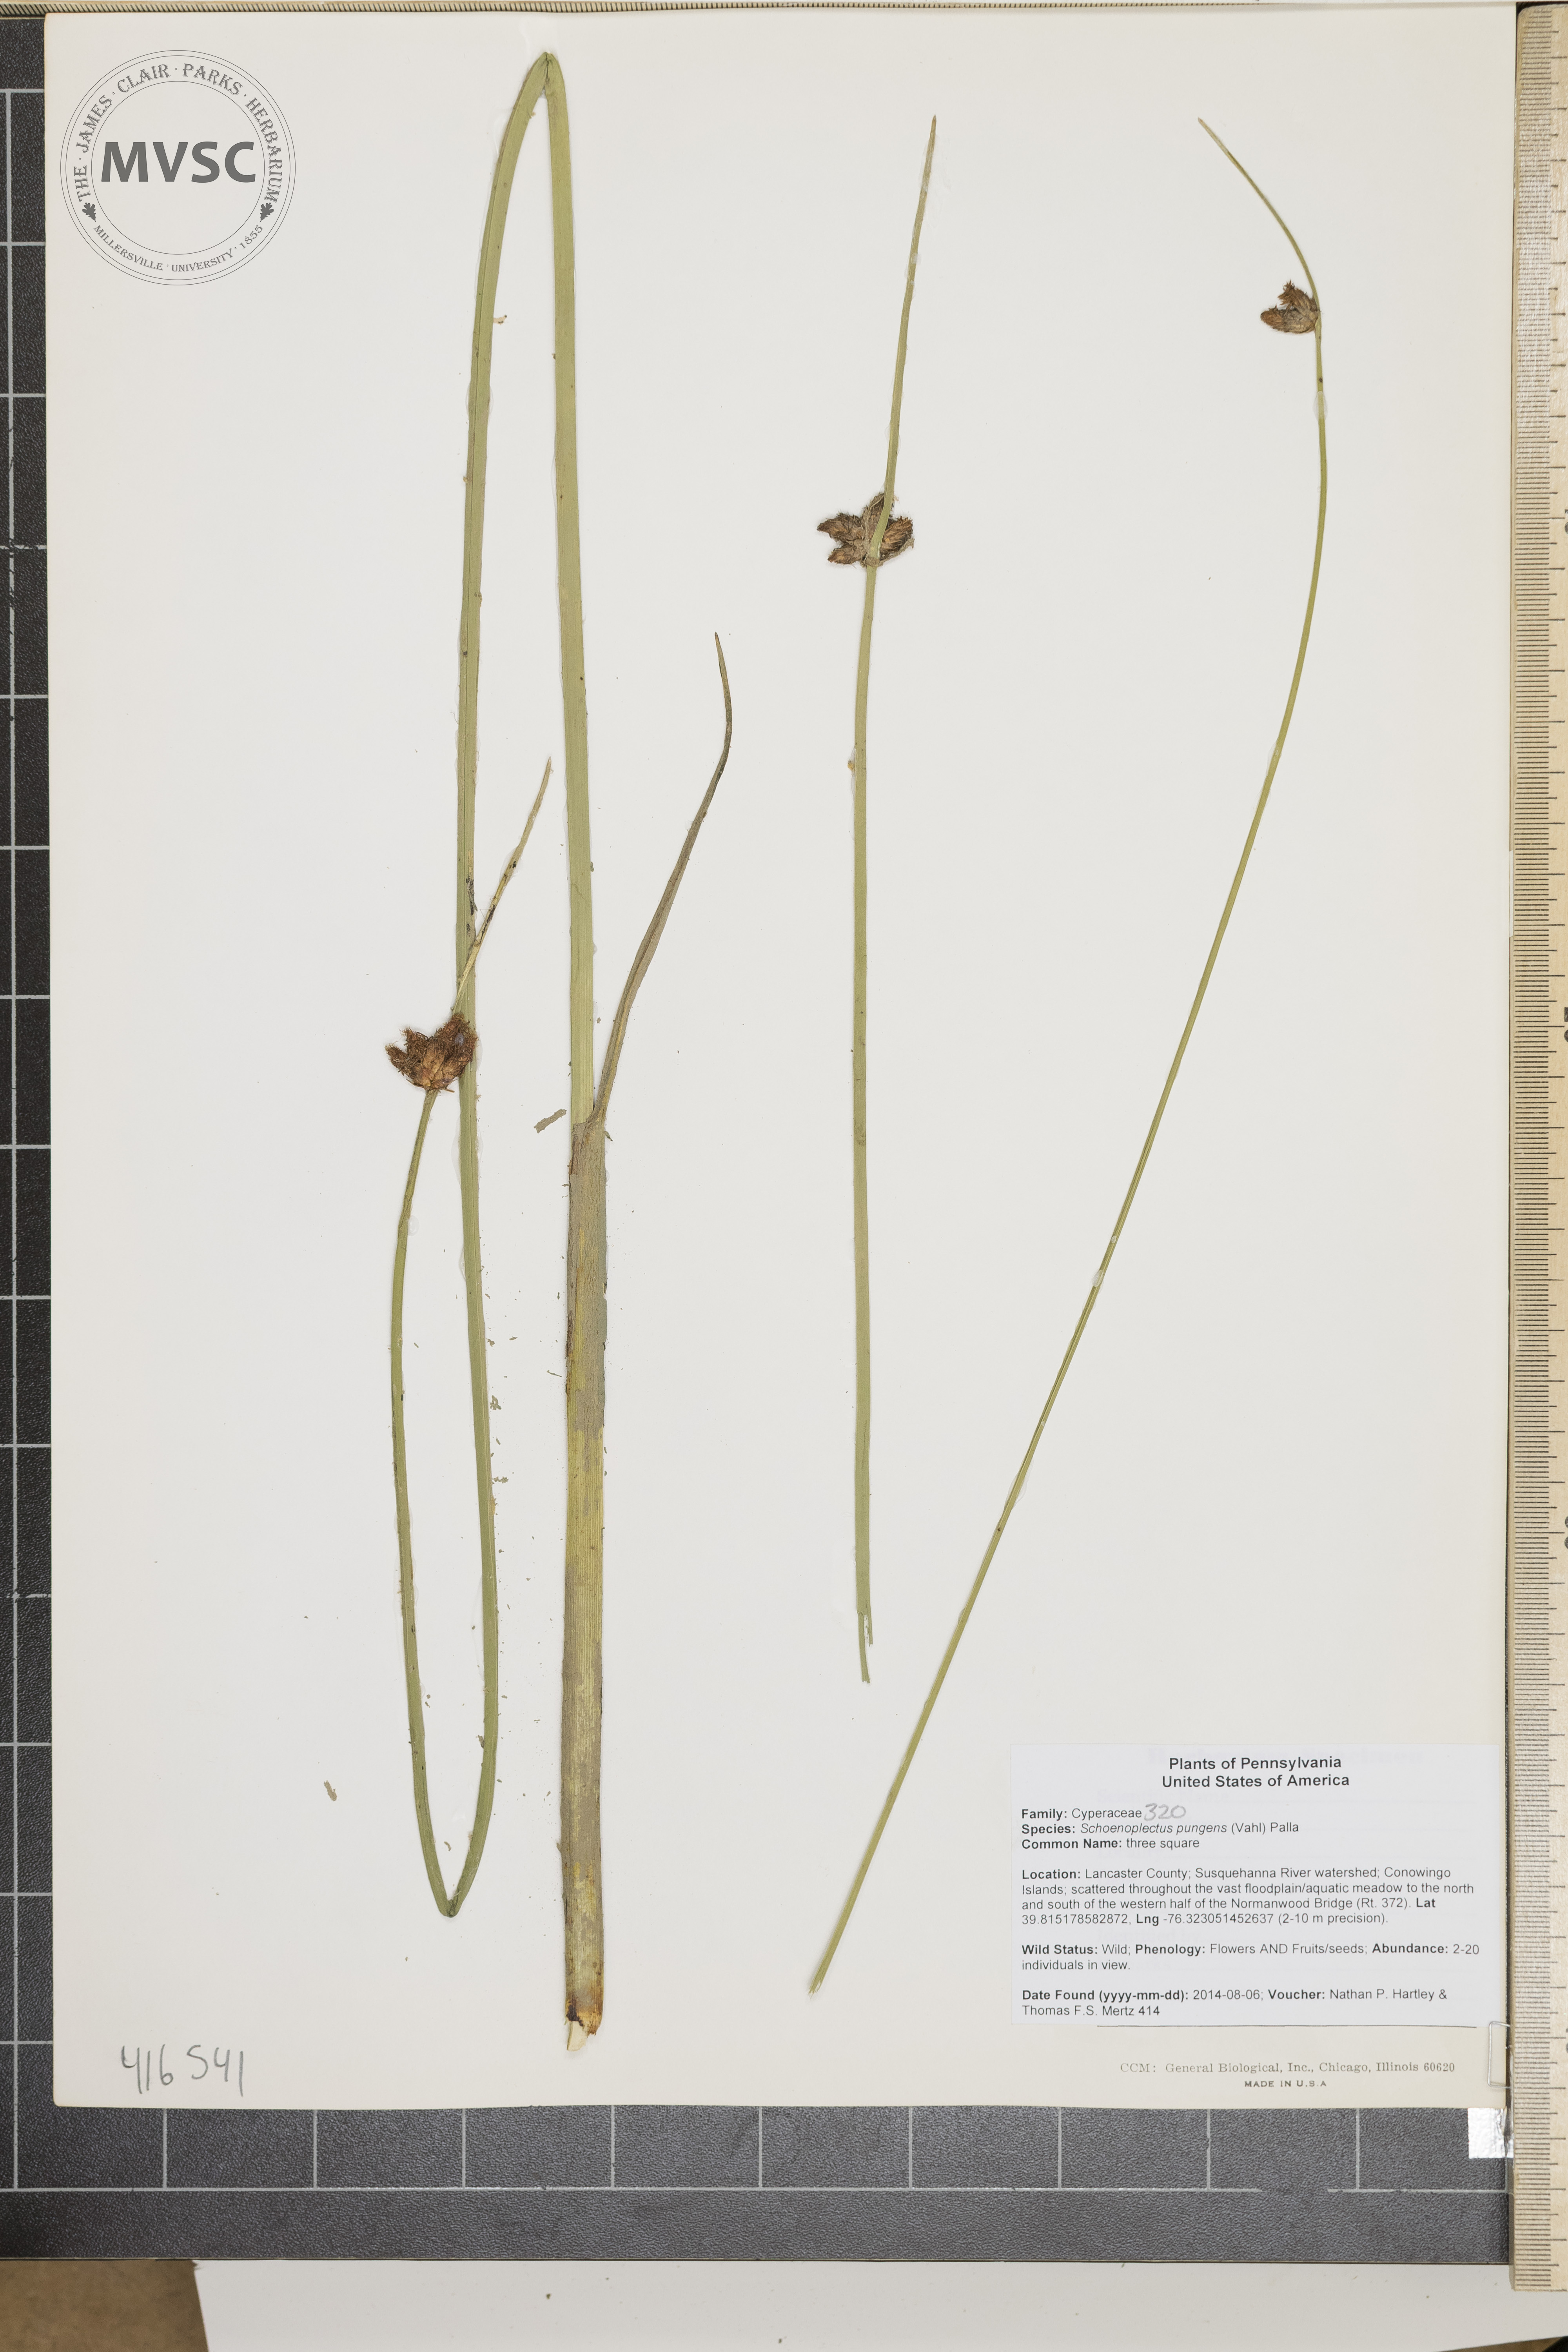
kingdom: Plantae
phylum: Tracheophyta
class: Liliopsida
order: Poales
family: Cyperaceae
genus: Schoenoplectus
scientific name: Schoenoplectus pungens
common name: three square
